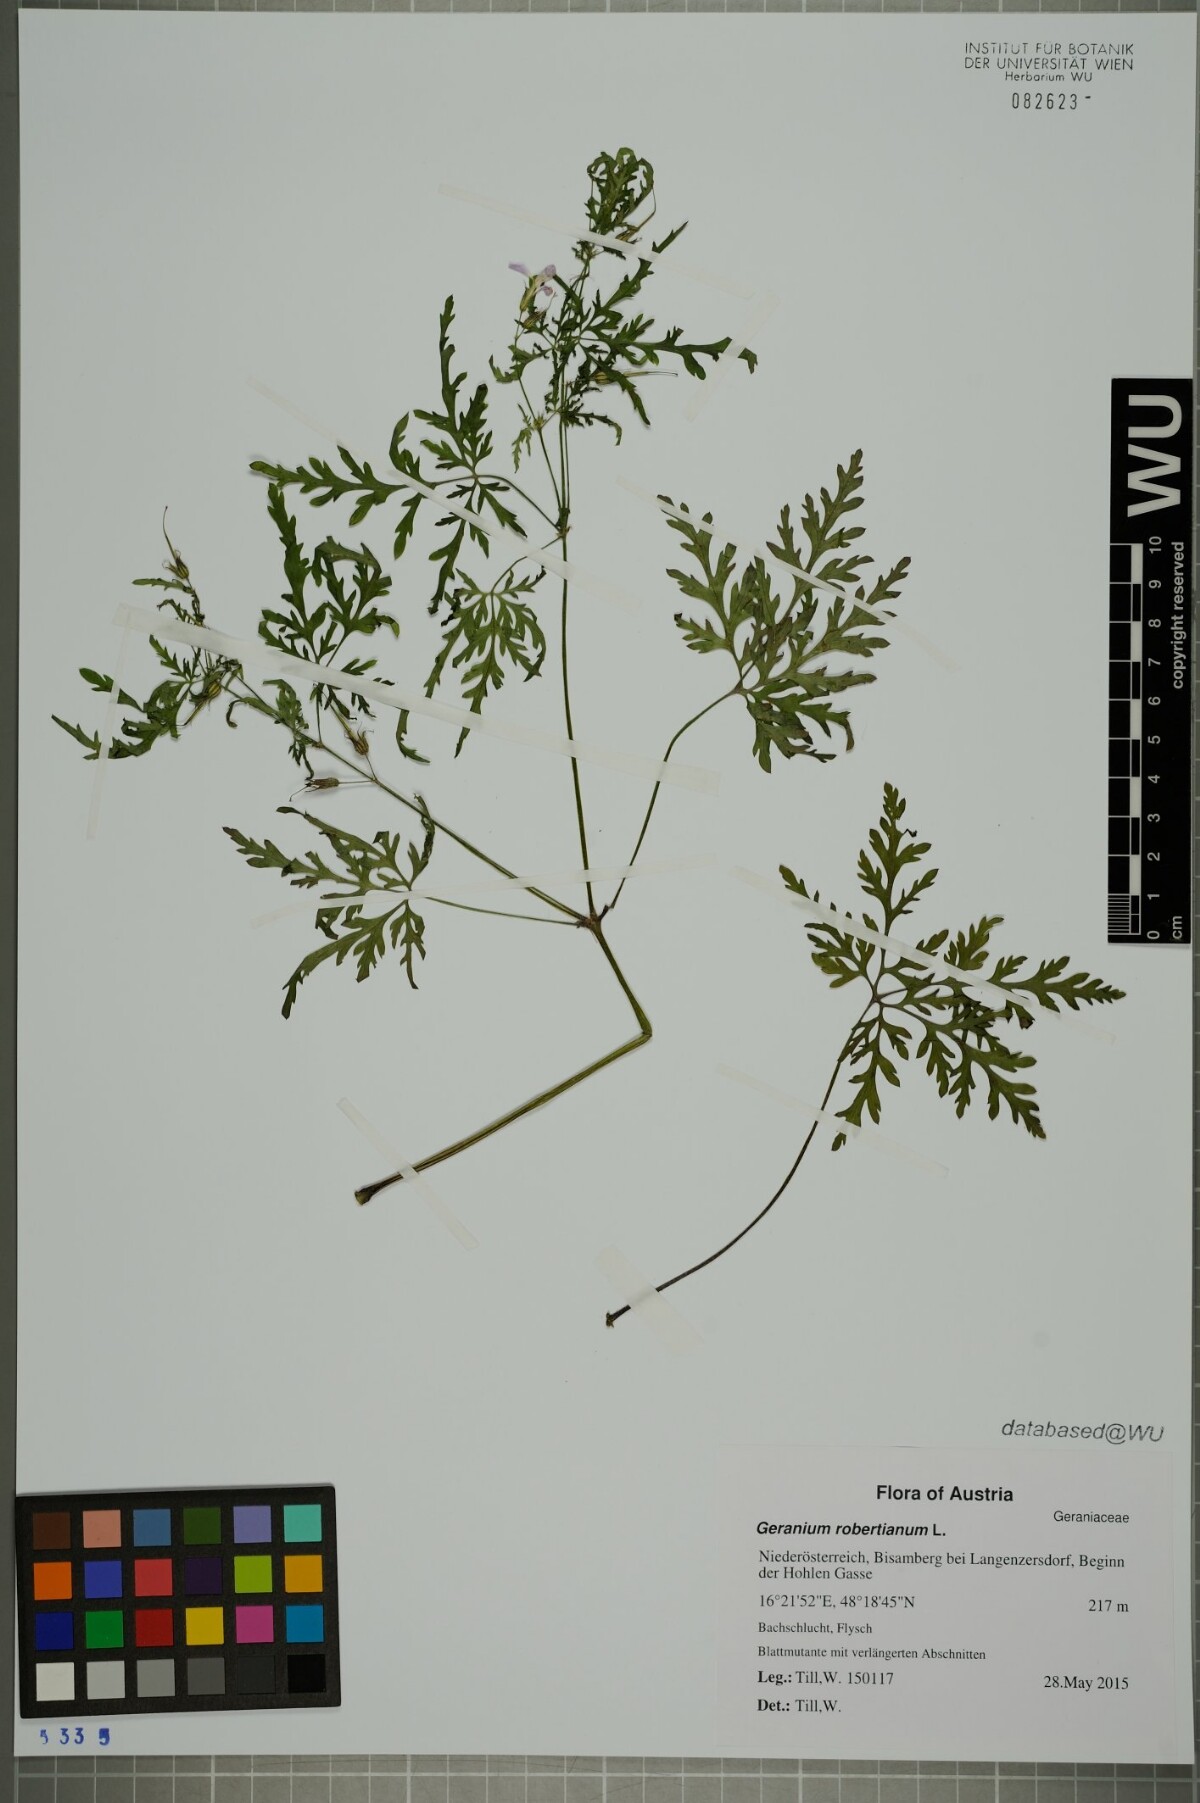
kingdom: Plantae
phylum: Tracheophyta
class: Magnoliopsida
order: Geraniales
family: Geraniaceae
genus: Geranium
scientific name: Geranium robertianum
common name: Herb-robert
